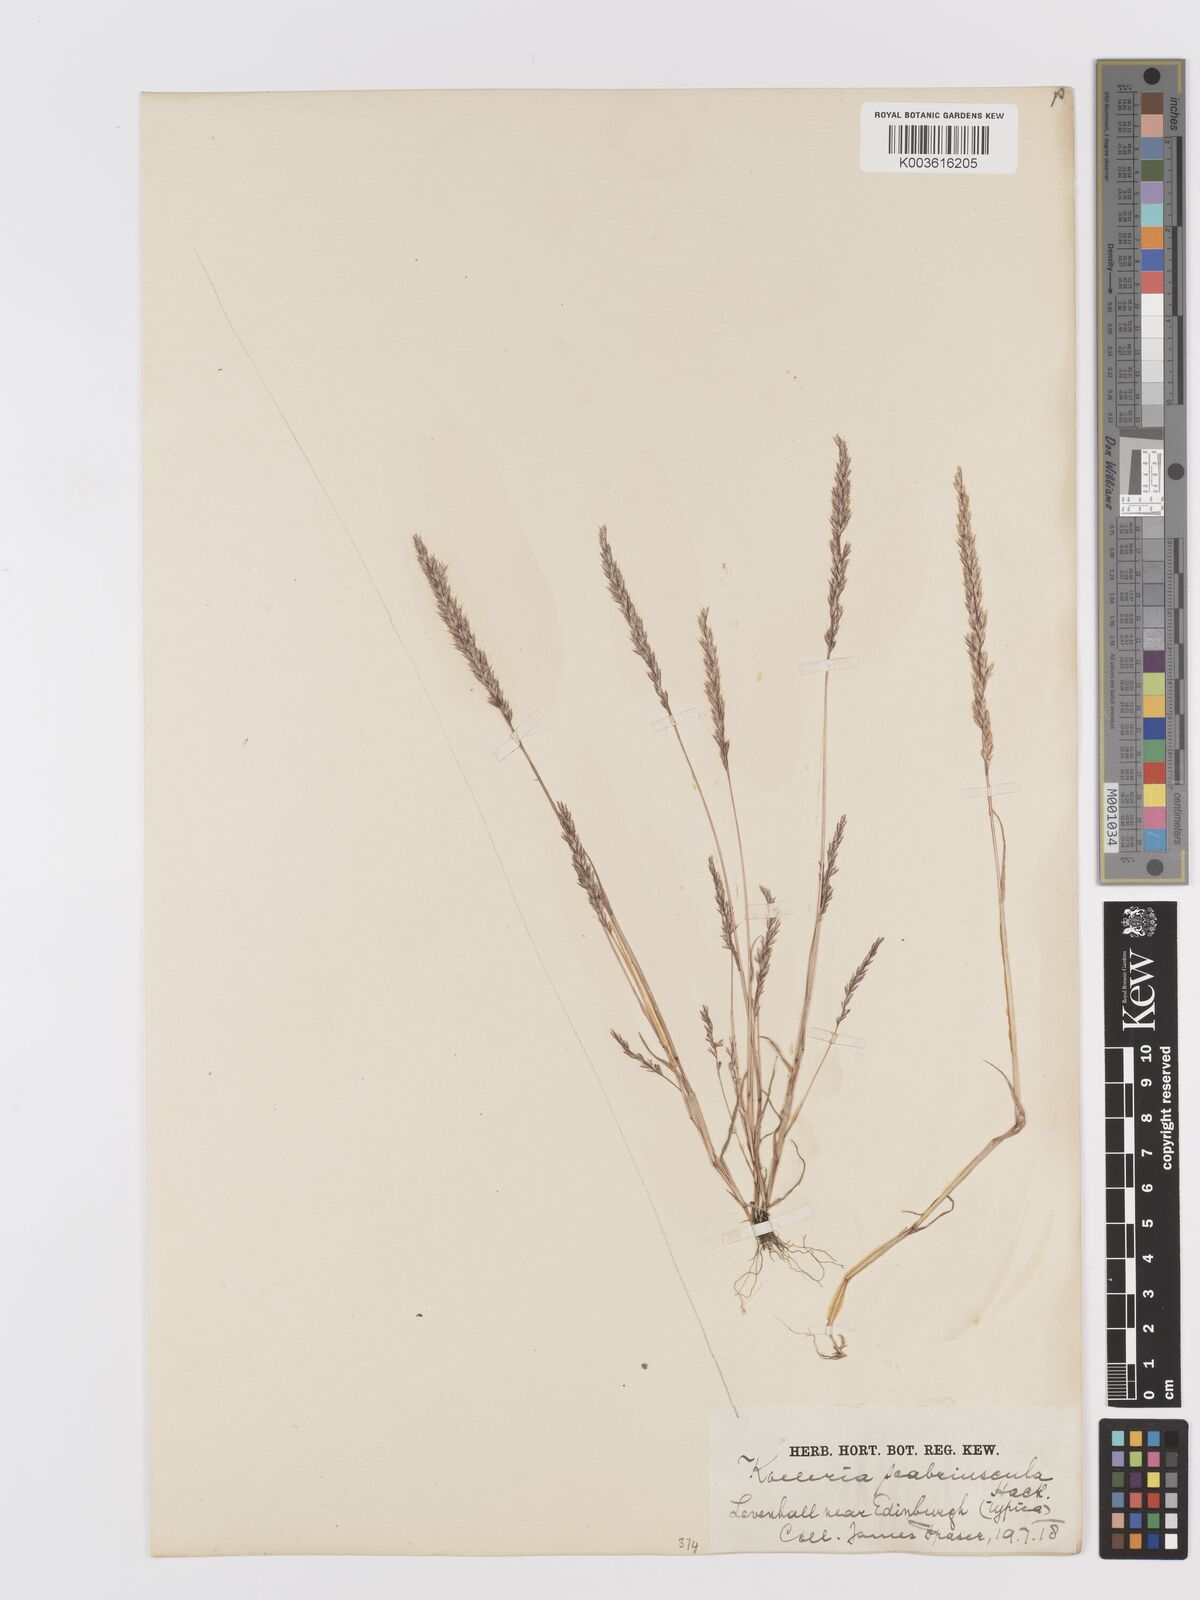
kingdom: Plantae
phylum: Tracheophyta
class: Liliopsida
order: Poales
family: Poaceae
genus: Trisetaria
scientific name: Trisetaria scabriuscula
